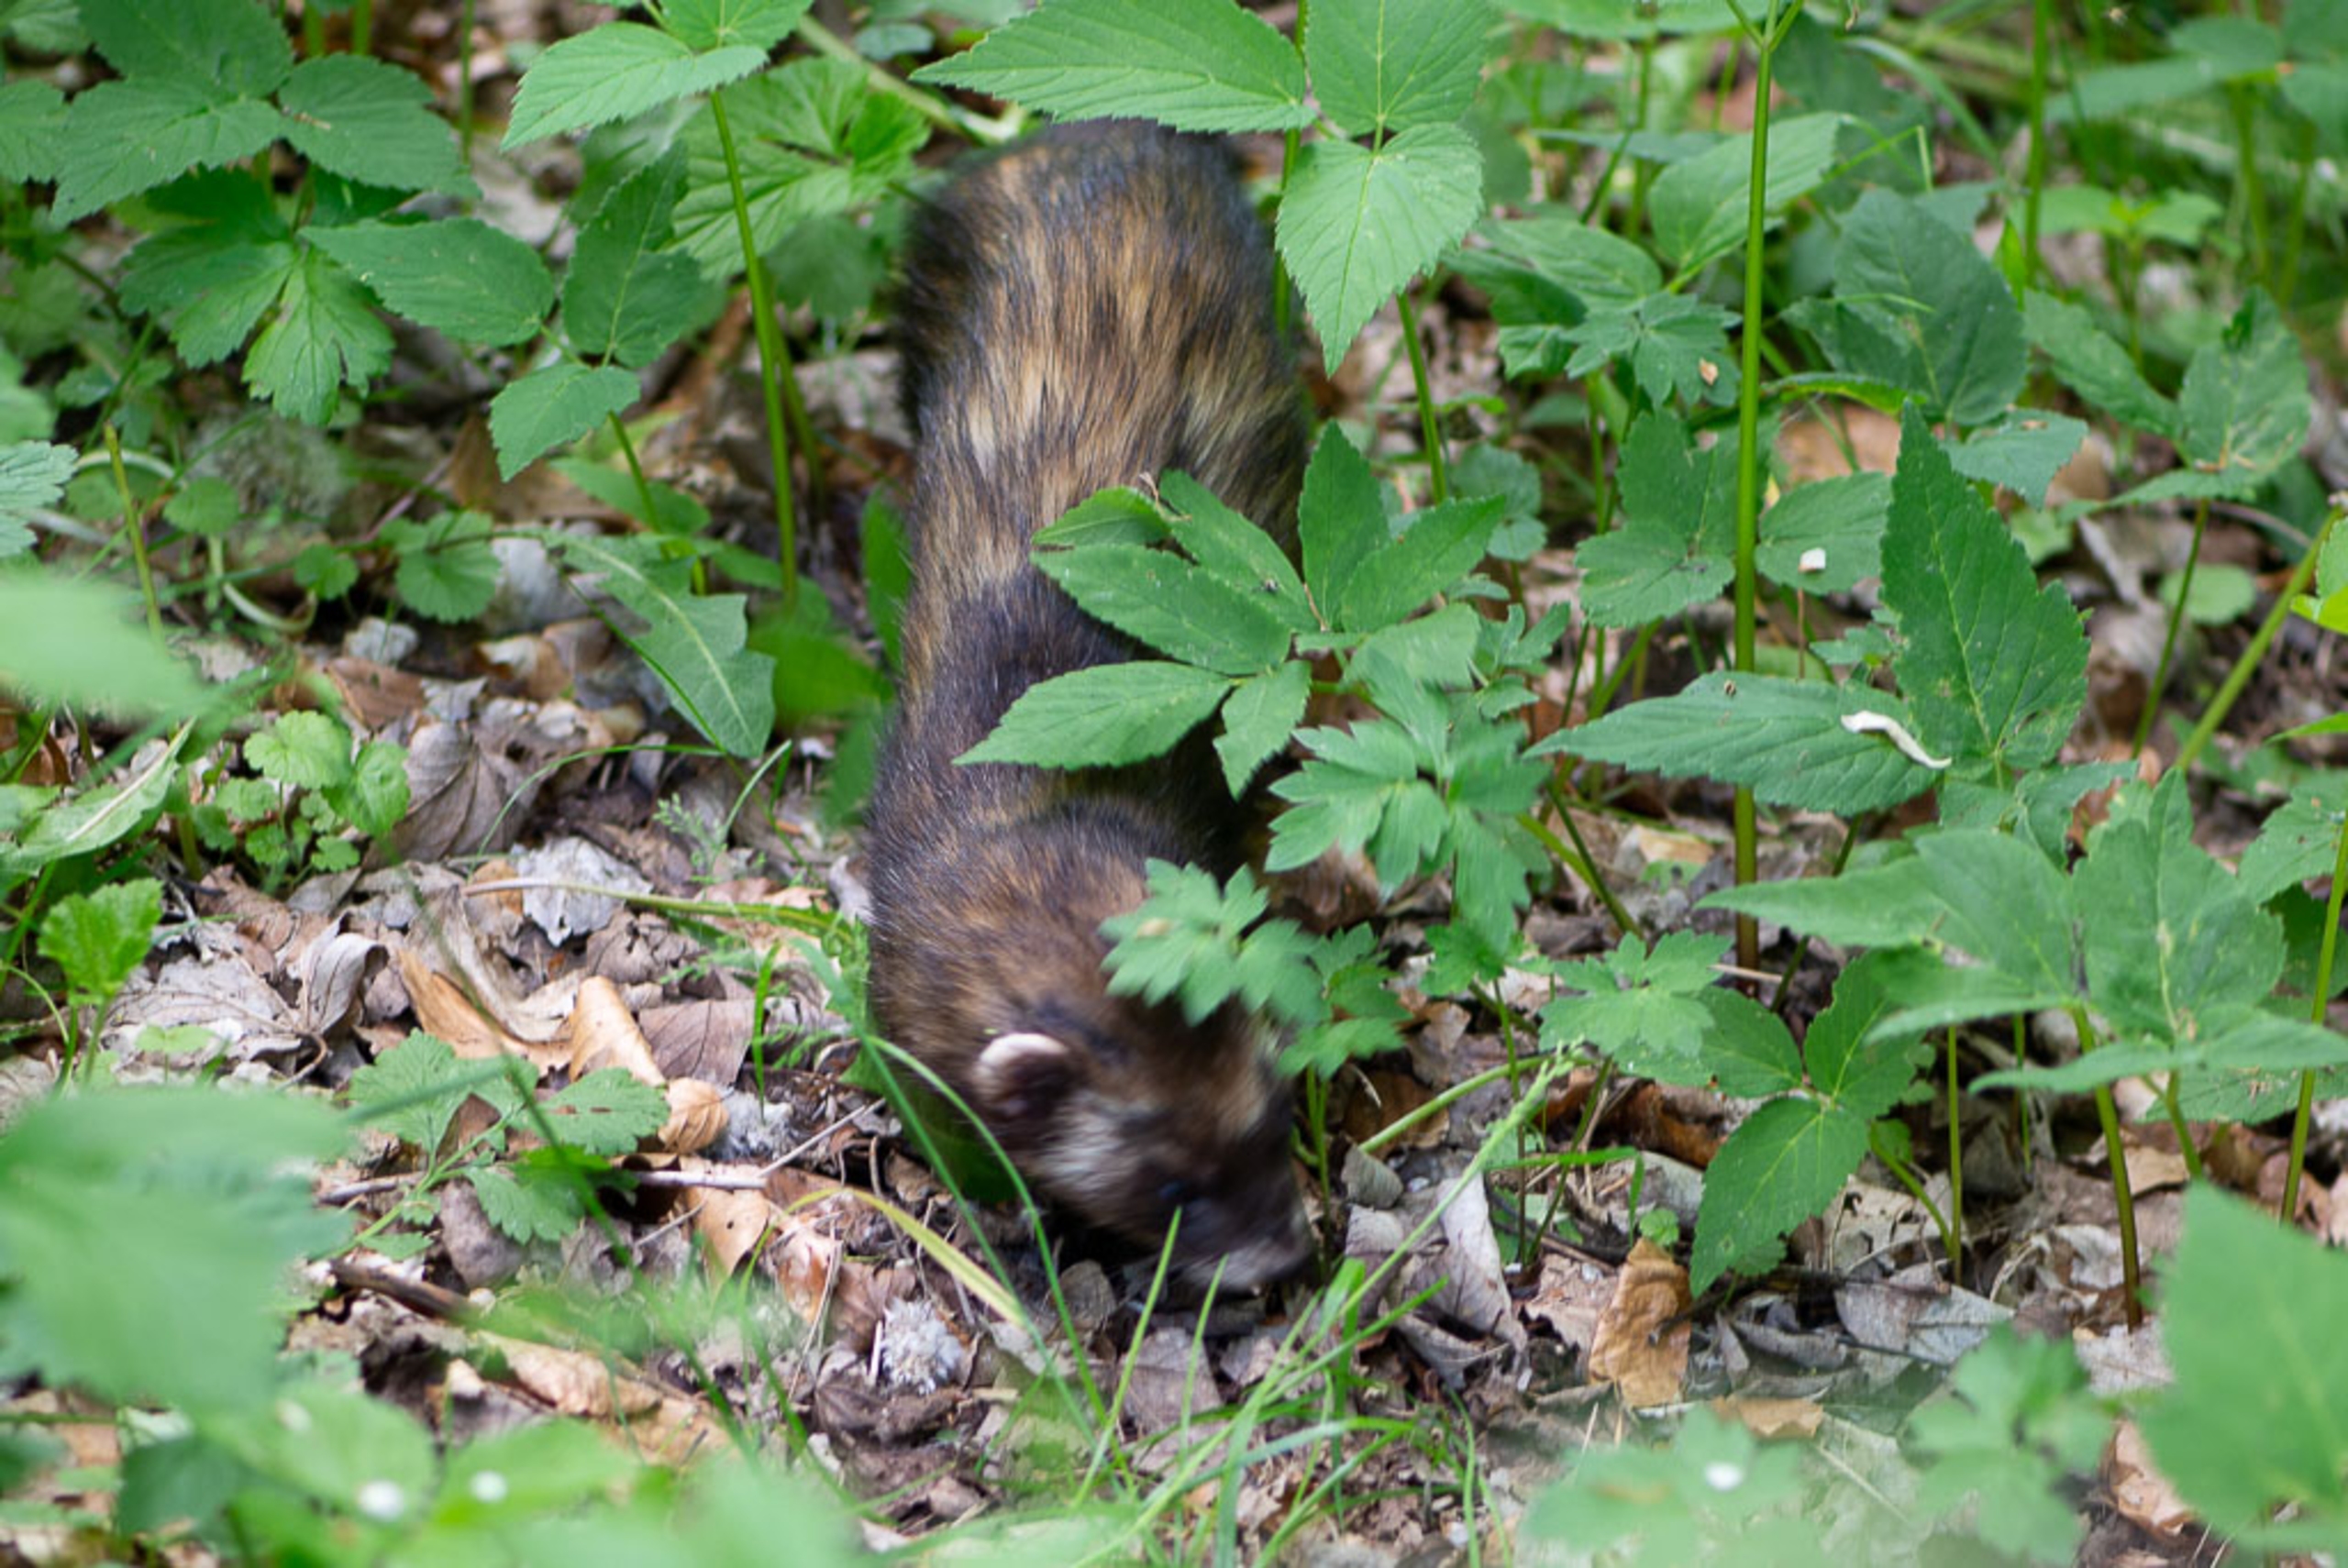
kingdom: Animalia
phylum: Chordata
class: Mammalia
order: Carnivora
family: Mustelidae
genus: Mustela
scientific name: Mustela putorius
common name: Ilder
